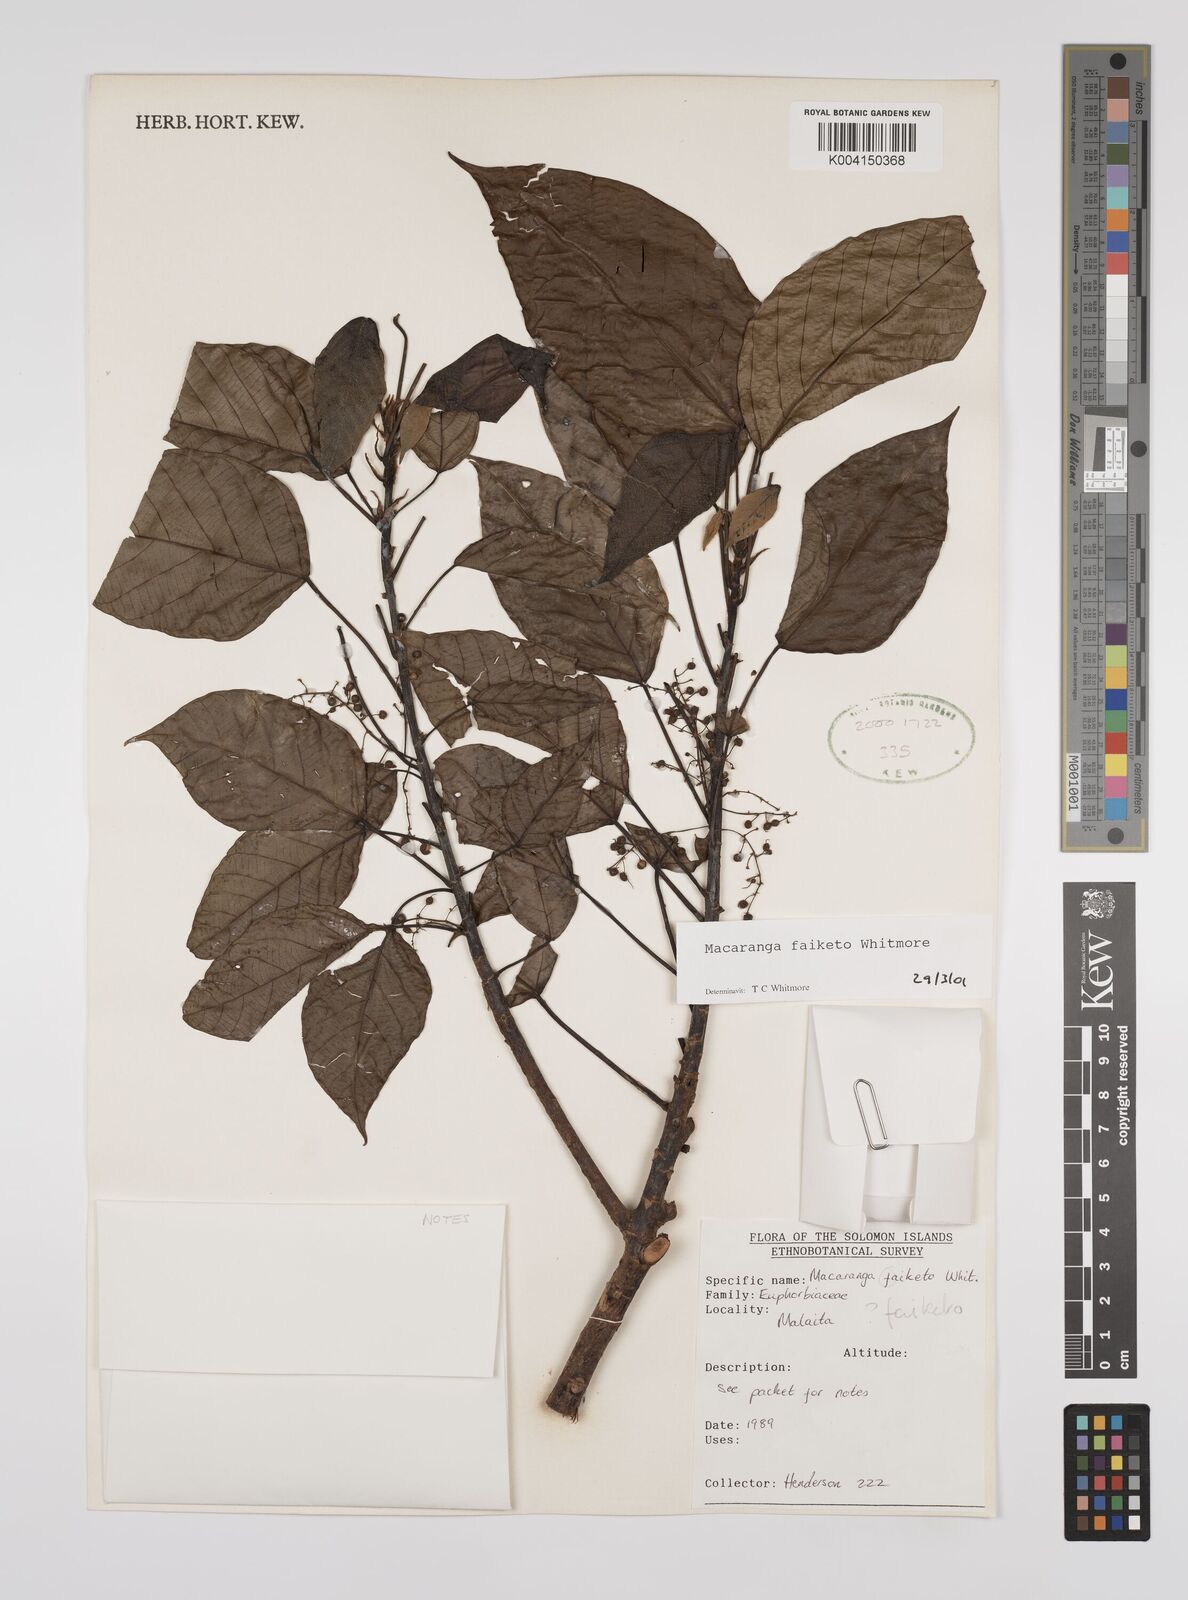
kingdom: Plantae
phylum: Tracheophyta
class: Magnoliopsida
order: Malpighiales
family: Euphorbiaceae
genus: Macaranga
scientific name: Macaranga faiketo
